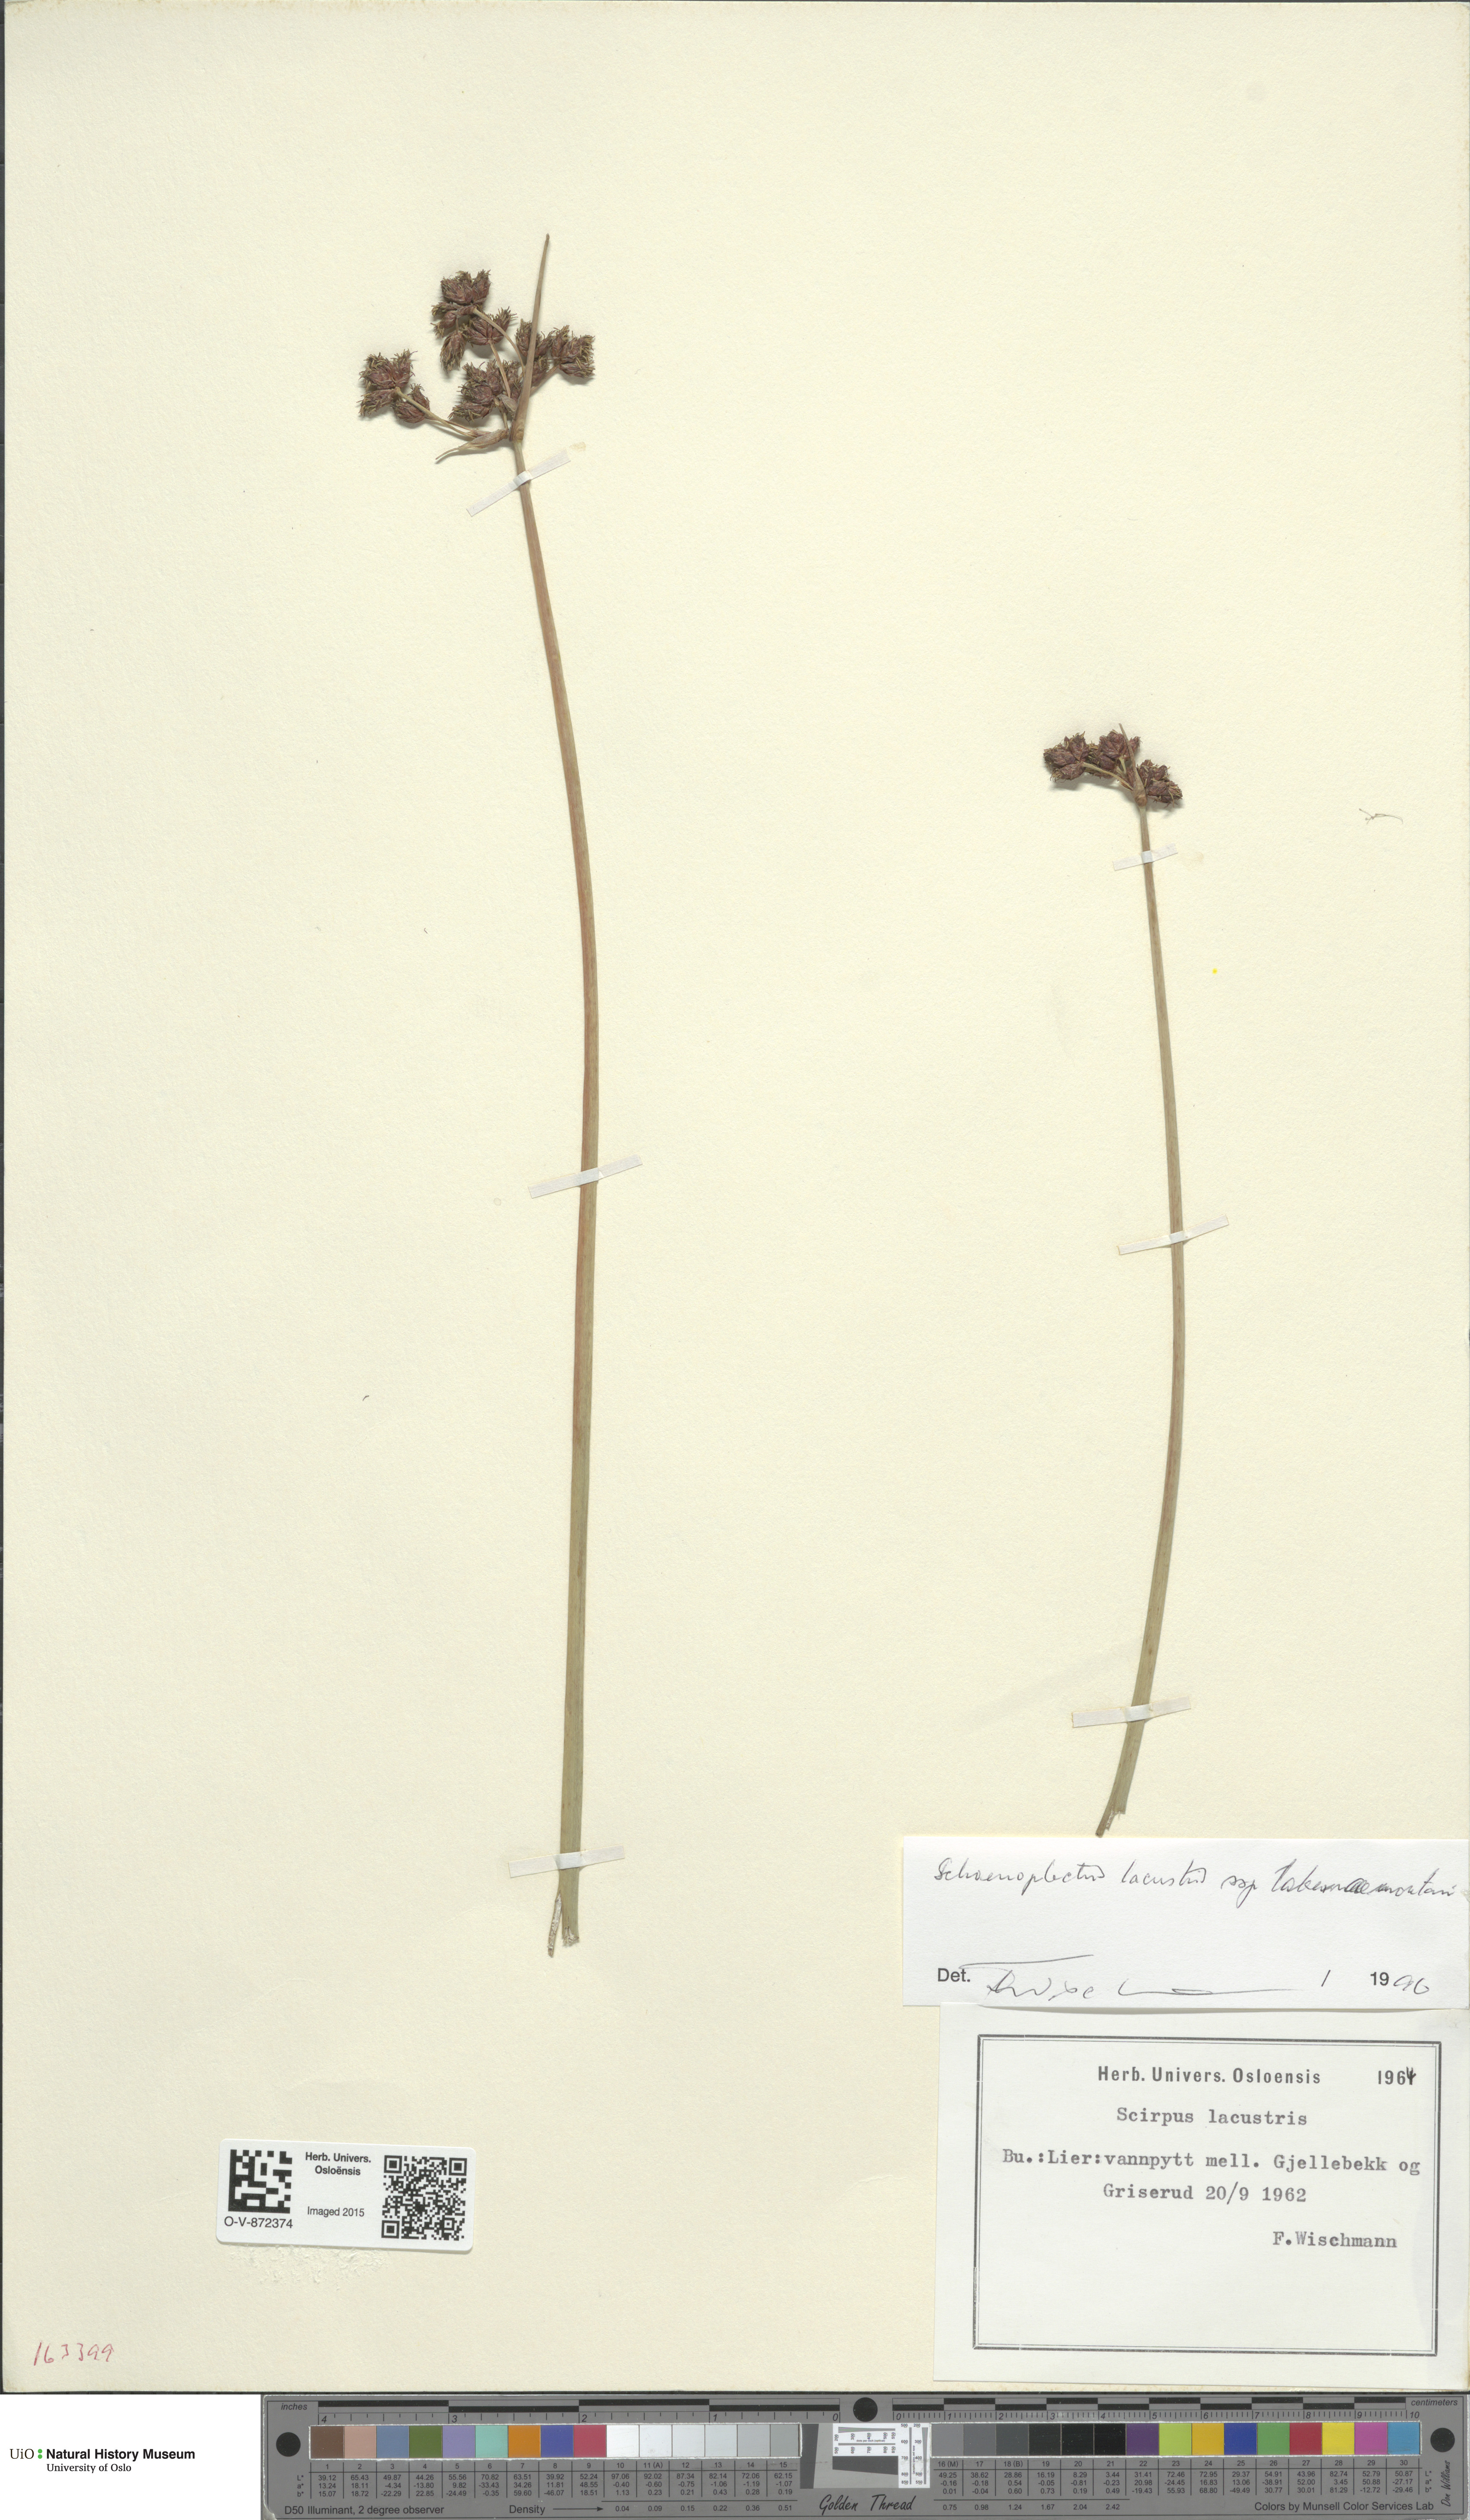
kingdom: Plantae
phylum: Tracheophyta
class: Liliopsida
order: Poales
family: Cyperaceae
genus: Schoenoplectus
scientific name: Schoenoplectus tabernaemontani
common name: Grey club-rush
